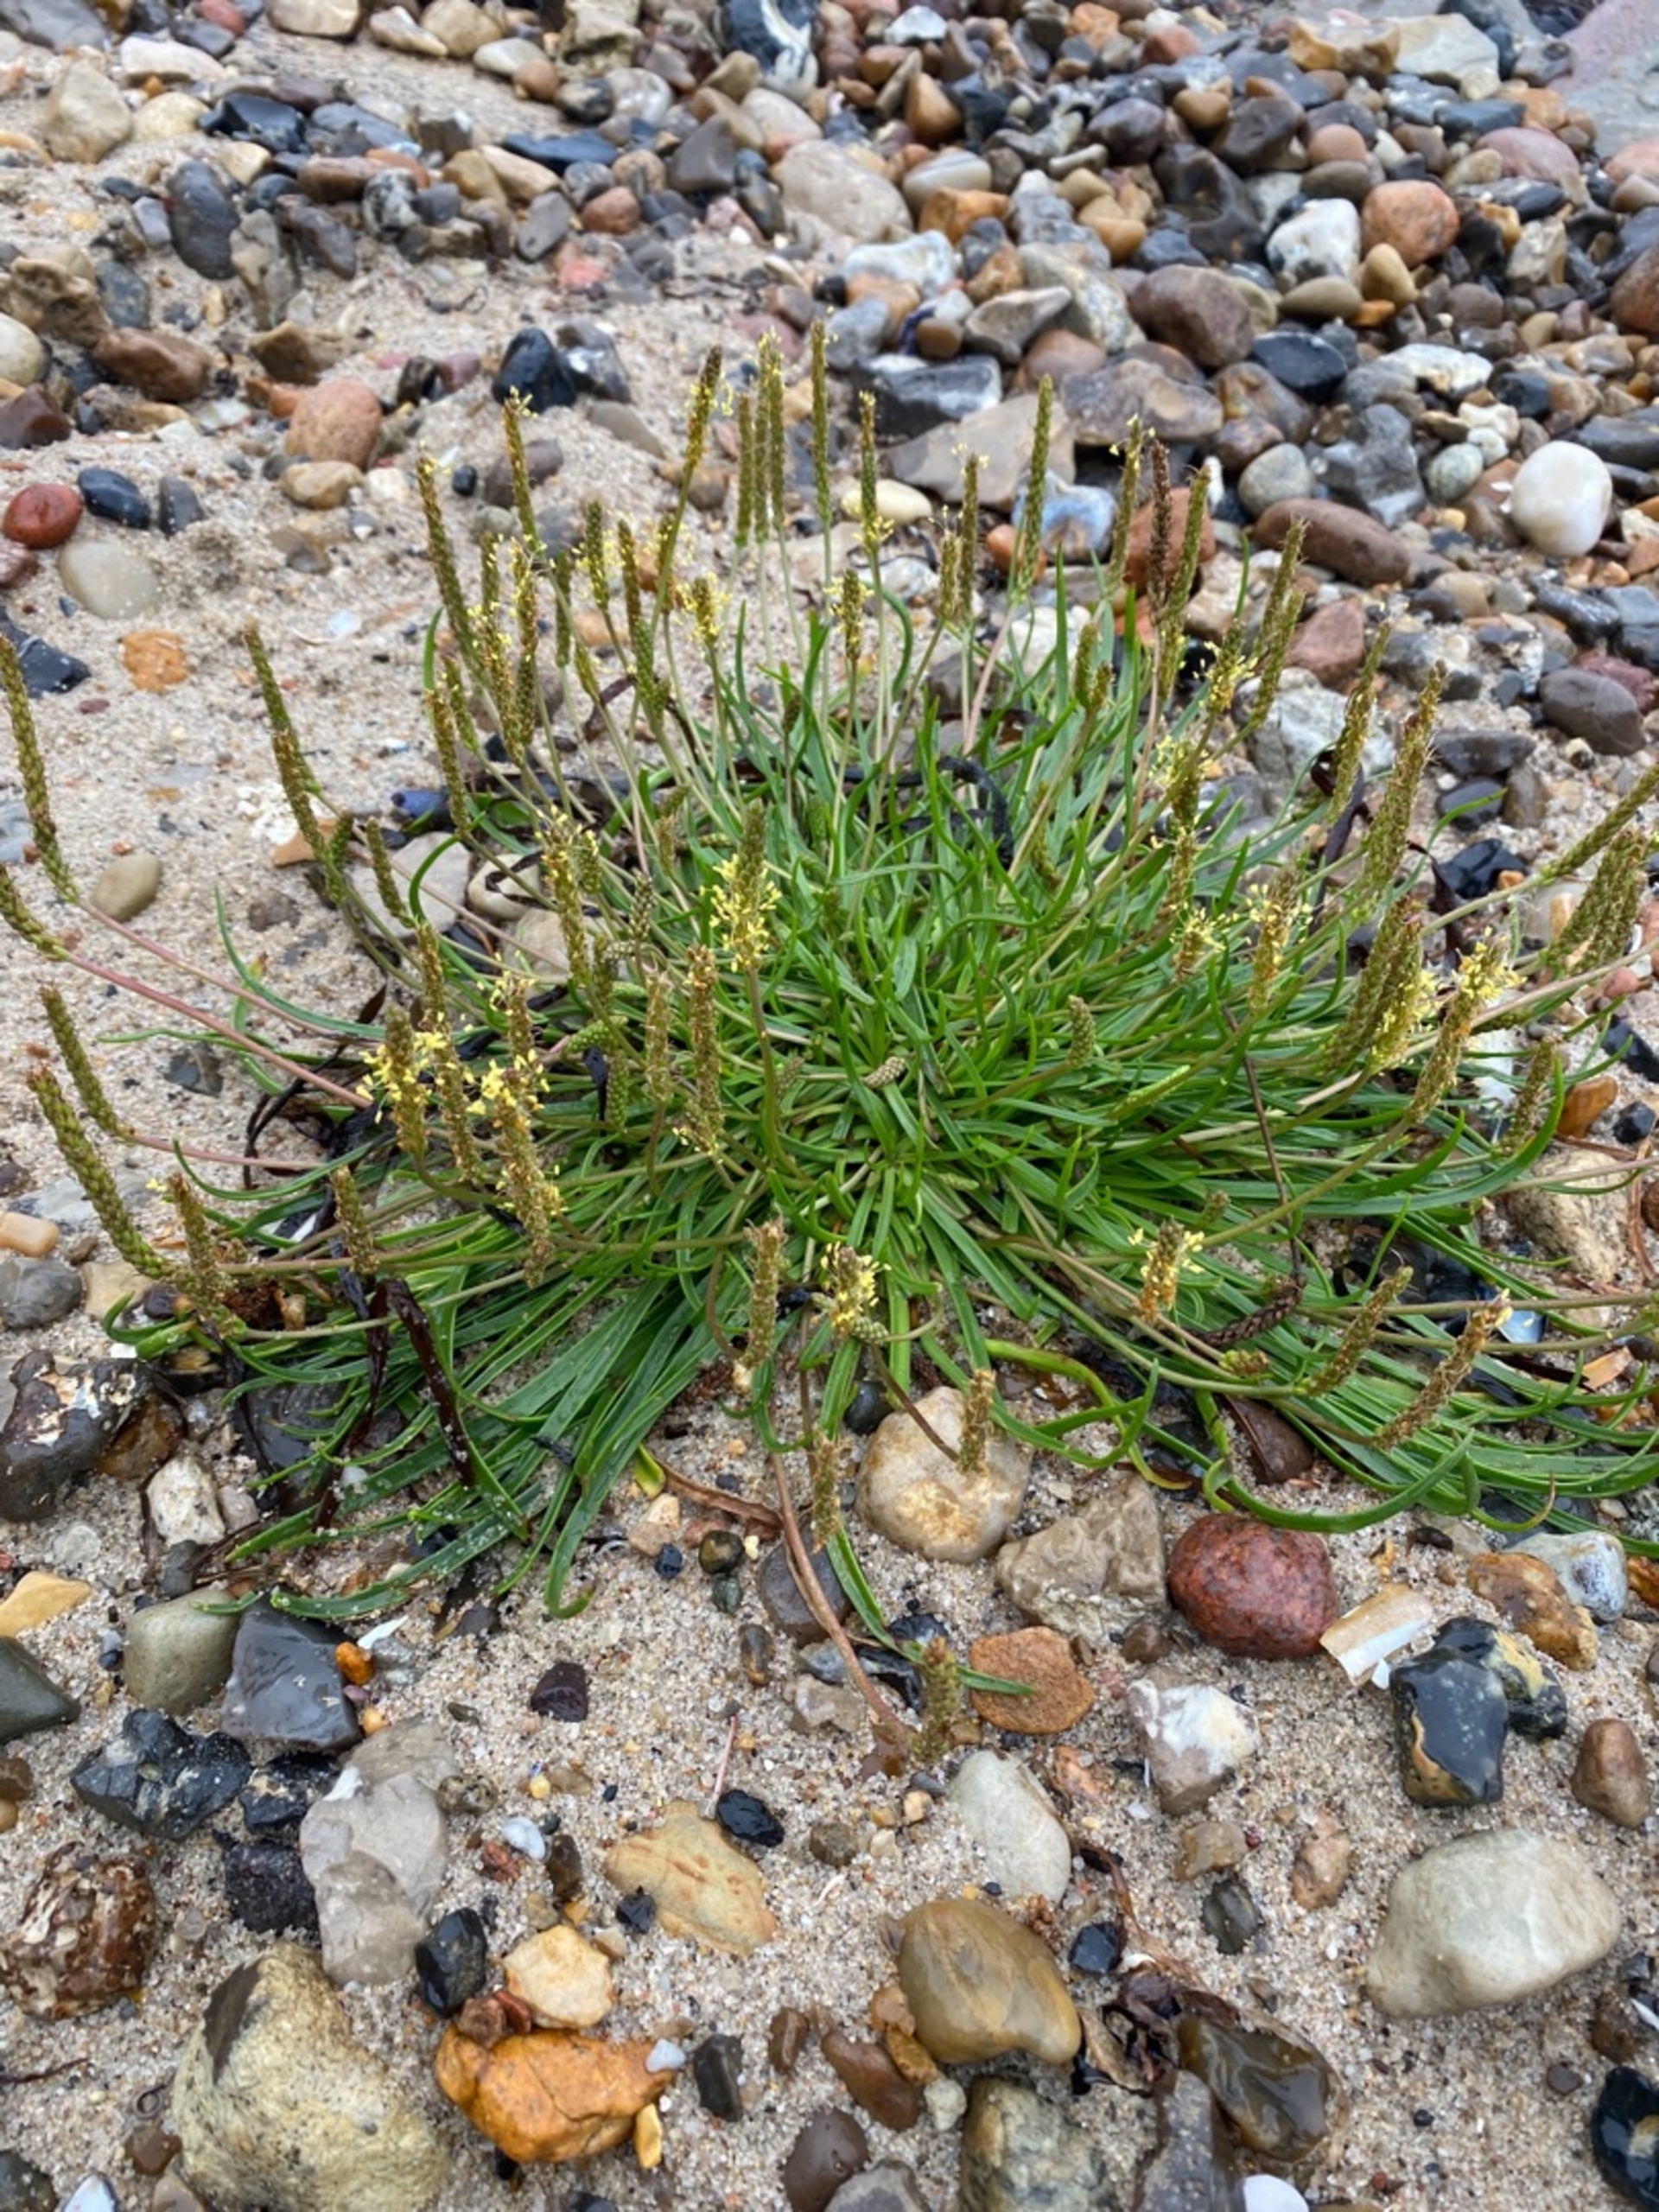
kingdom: Plantae
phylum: Tracheophyta
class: Magnoliopsida
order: Lamiales
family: Plantaginaceae
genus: Plantago
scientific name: Plantago maritima
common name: Strand-vejbred
